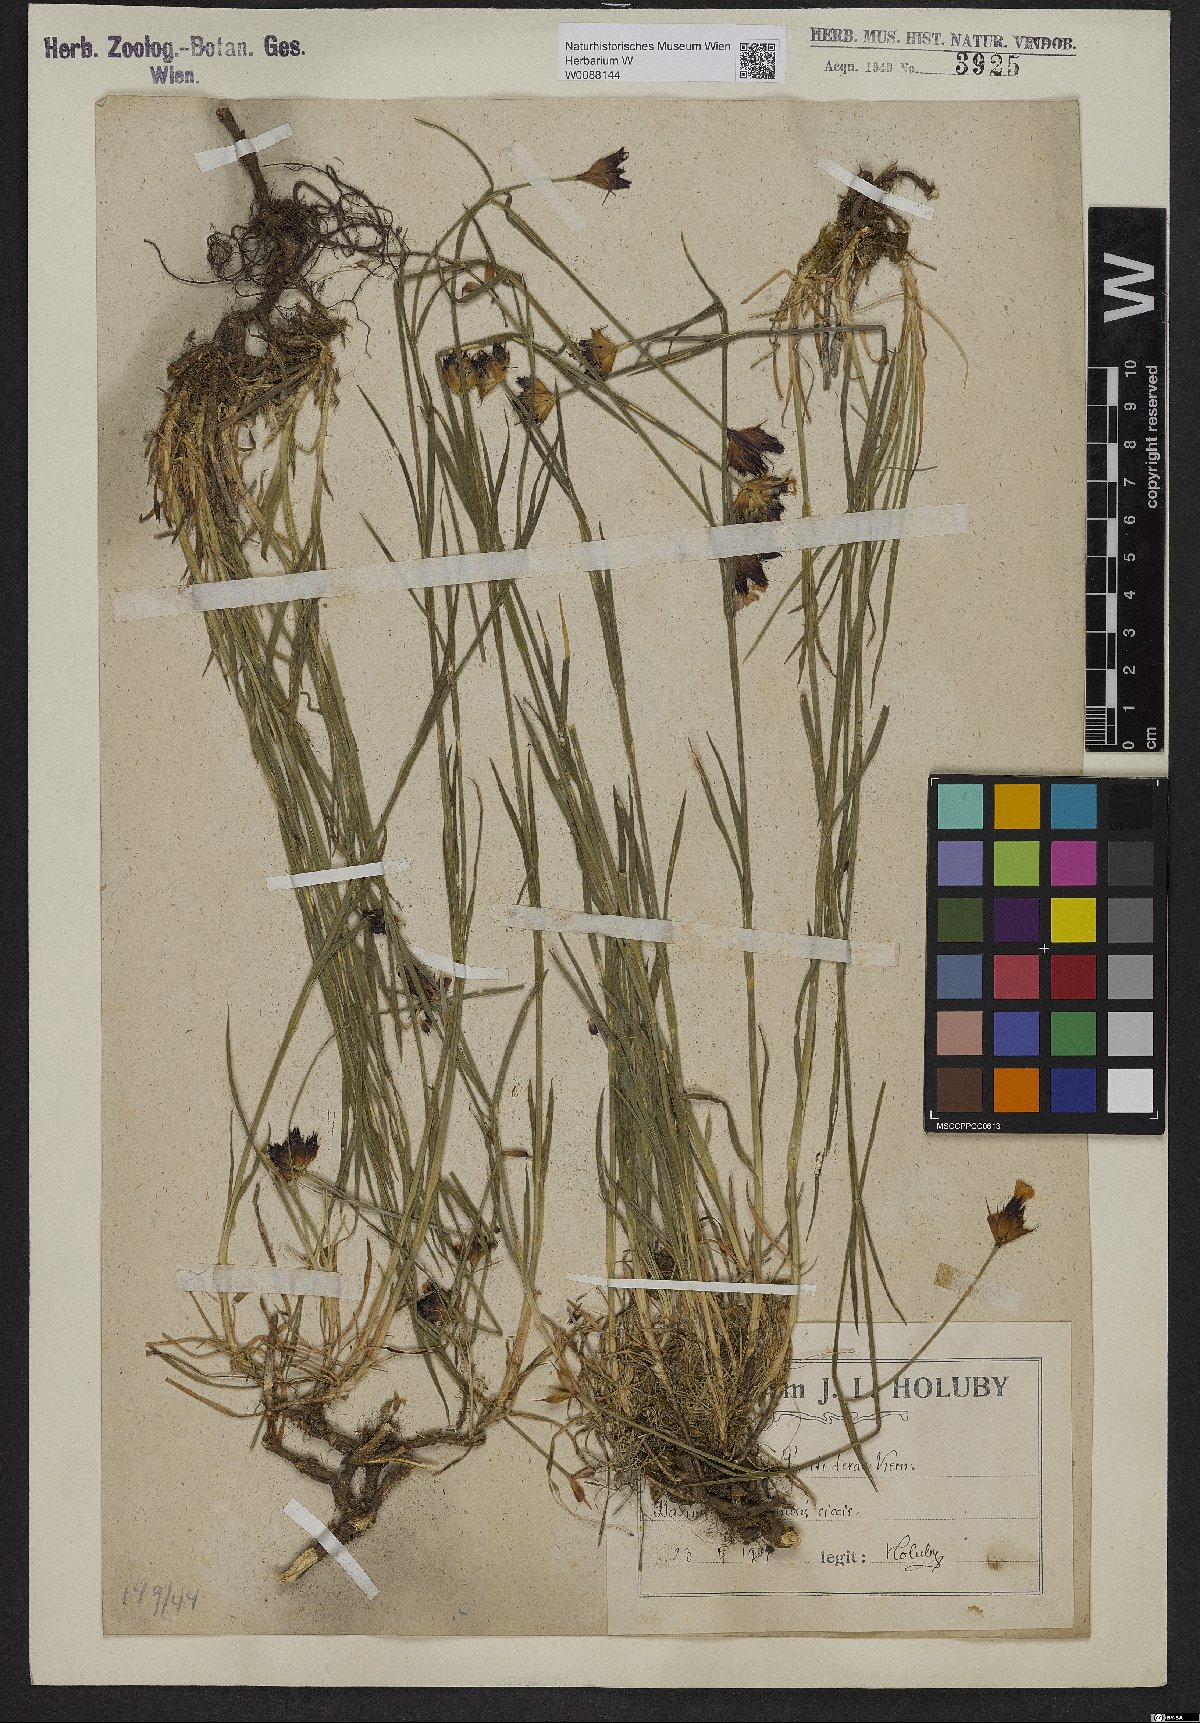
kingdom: Plantae
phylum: Tracheophyta
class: Magnoliopsida
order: Caryophyllales
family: Caryophyllaceae
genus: Dianthus
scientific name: Dianthus pontederae
